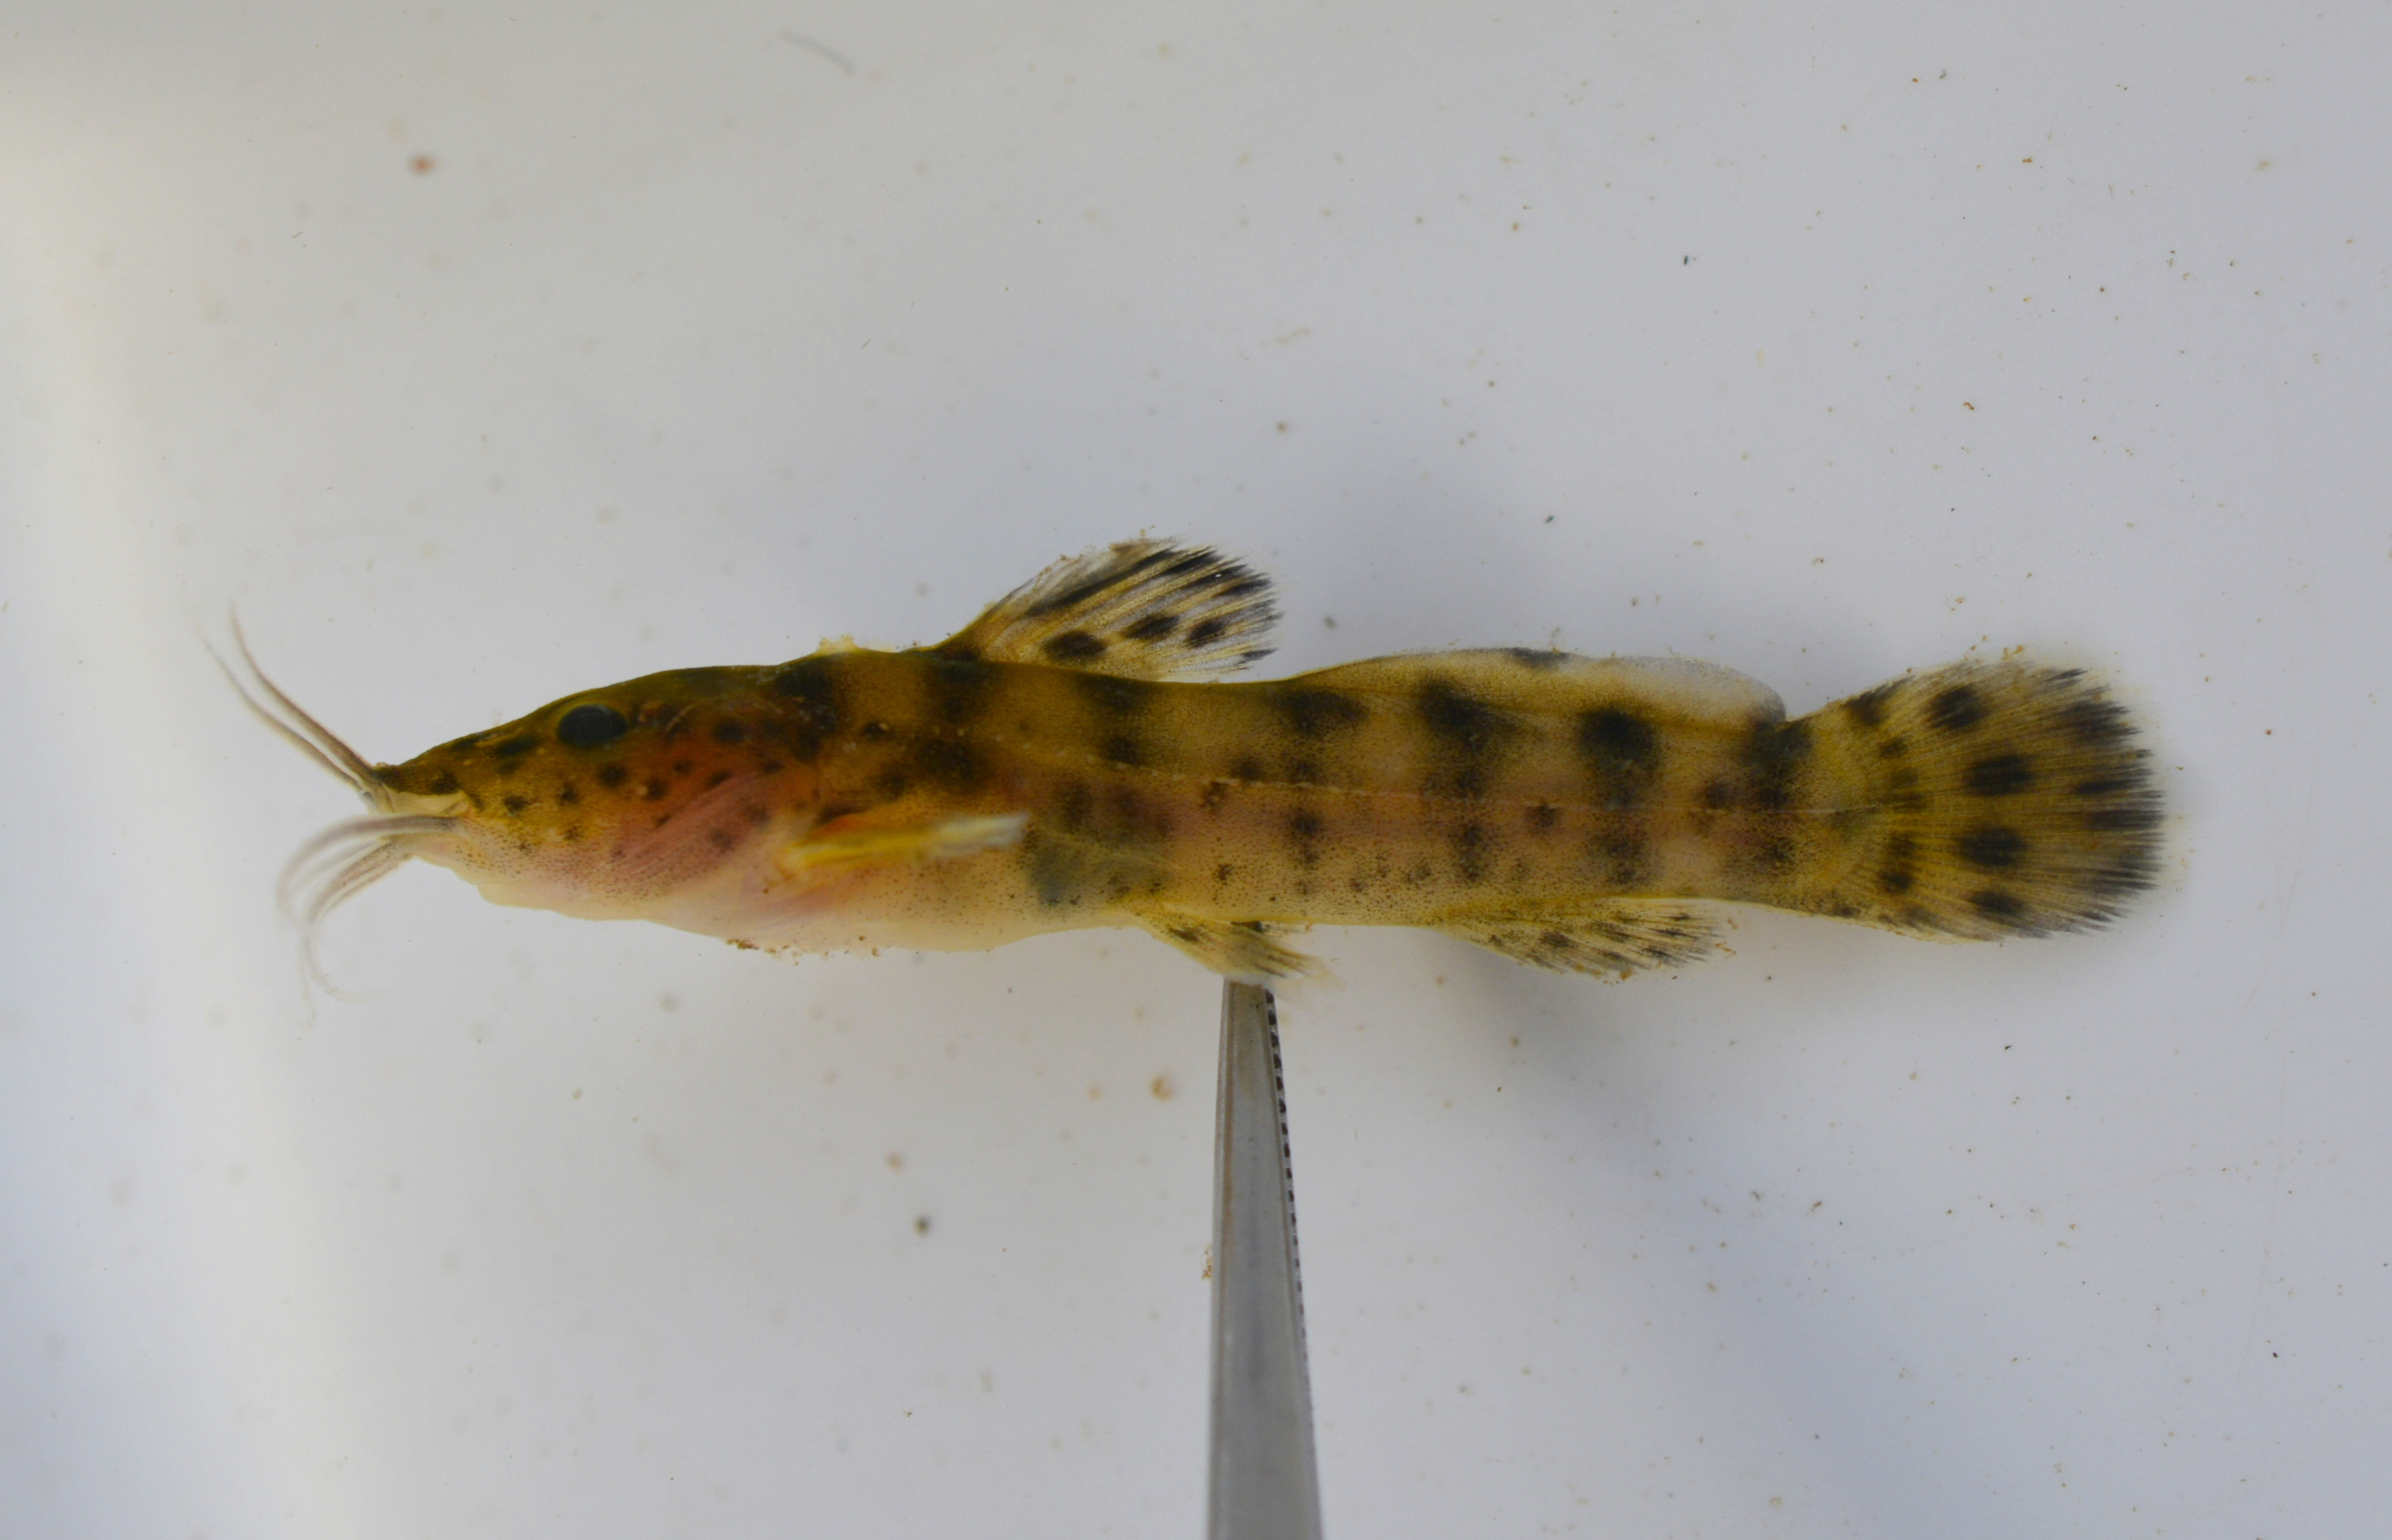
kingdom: Animalia
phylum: Chordata
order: Siluriformes
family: Claroteidae
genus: Parauchenoglanis
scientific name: Parauchenoglanis ngamensis
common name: Zambezi grunter
